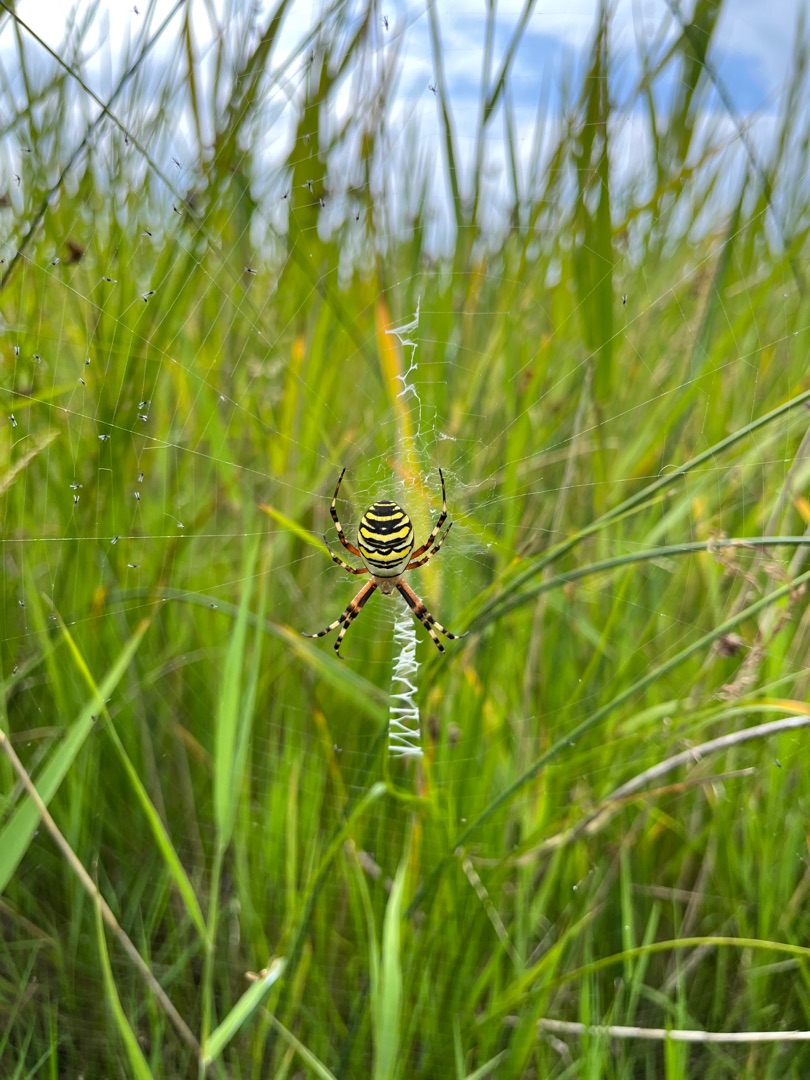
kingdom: Animalia
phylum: Arthropoda
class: Arachnida
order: Araneae
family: Araneidae
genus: Argiope
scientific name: Argiope bruennichi
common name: Hvepseedderkop
